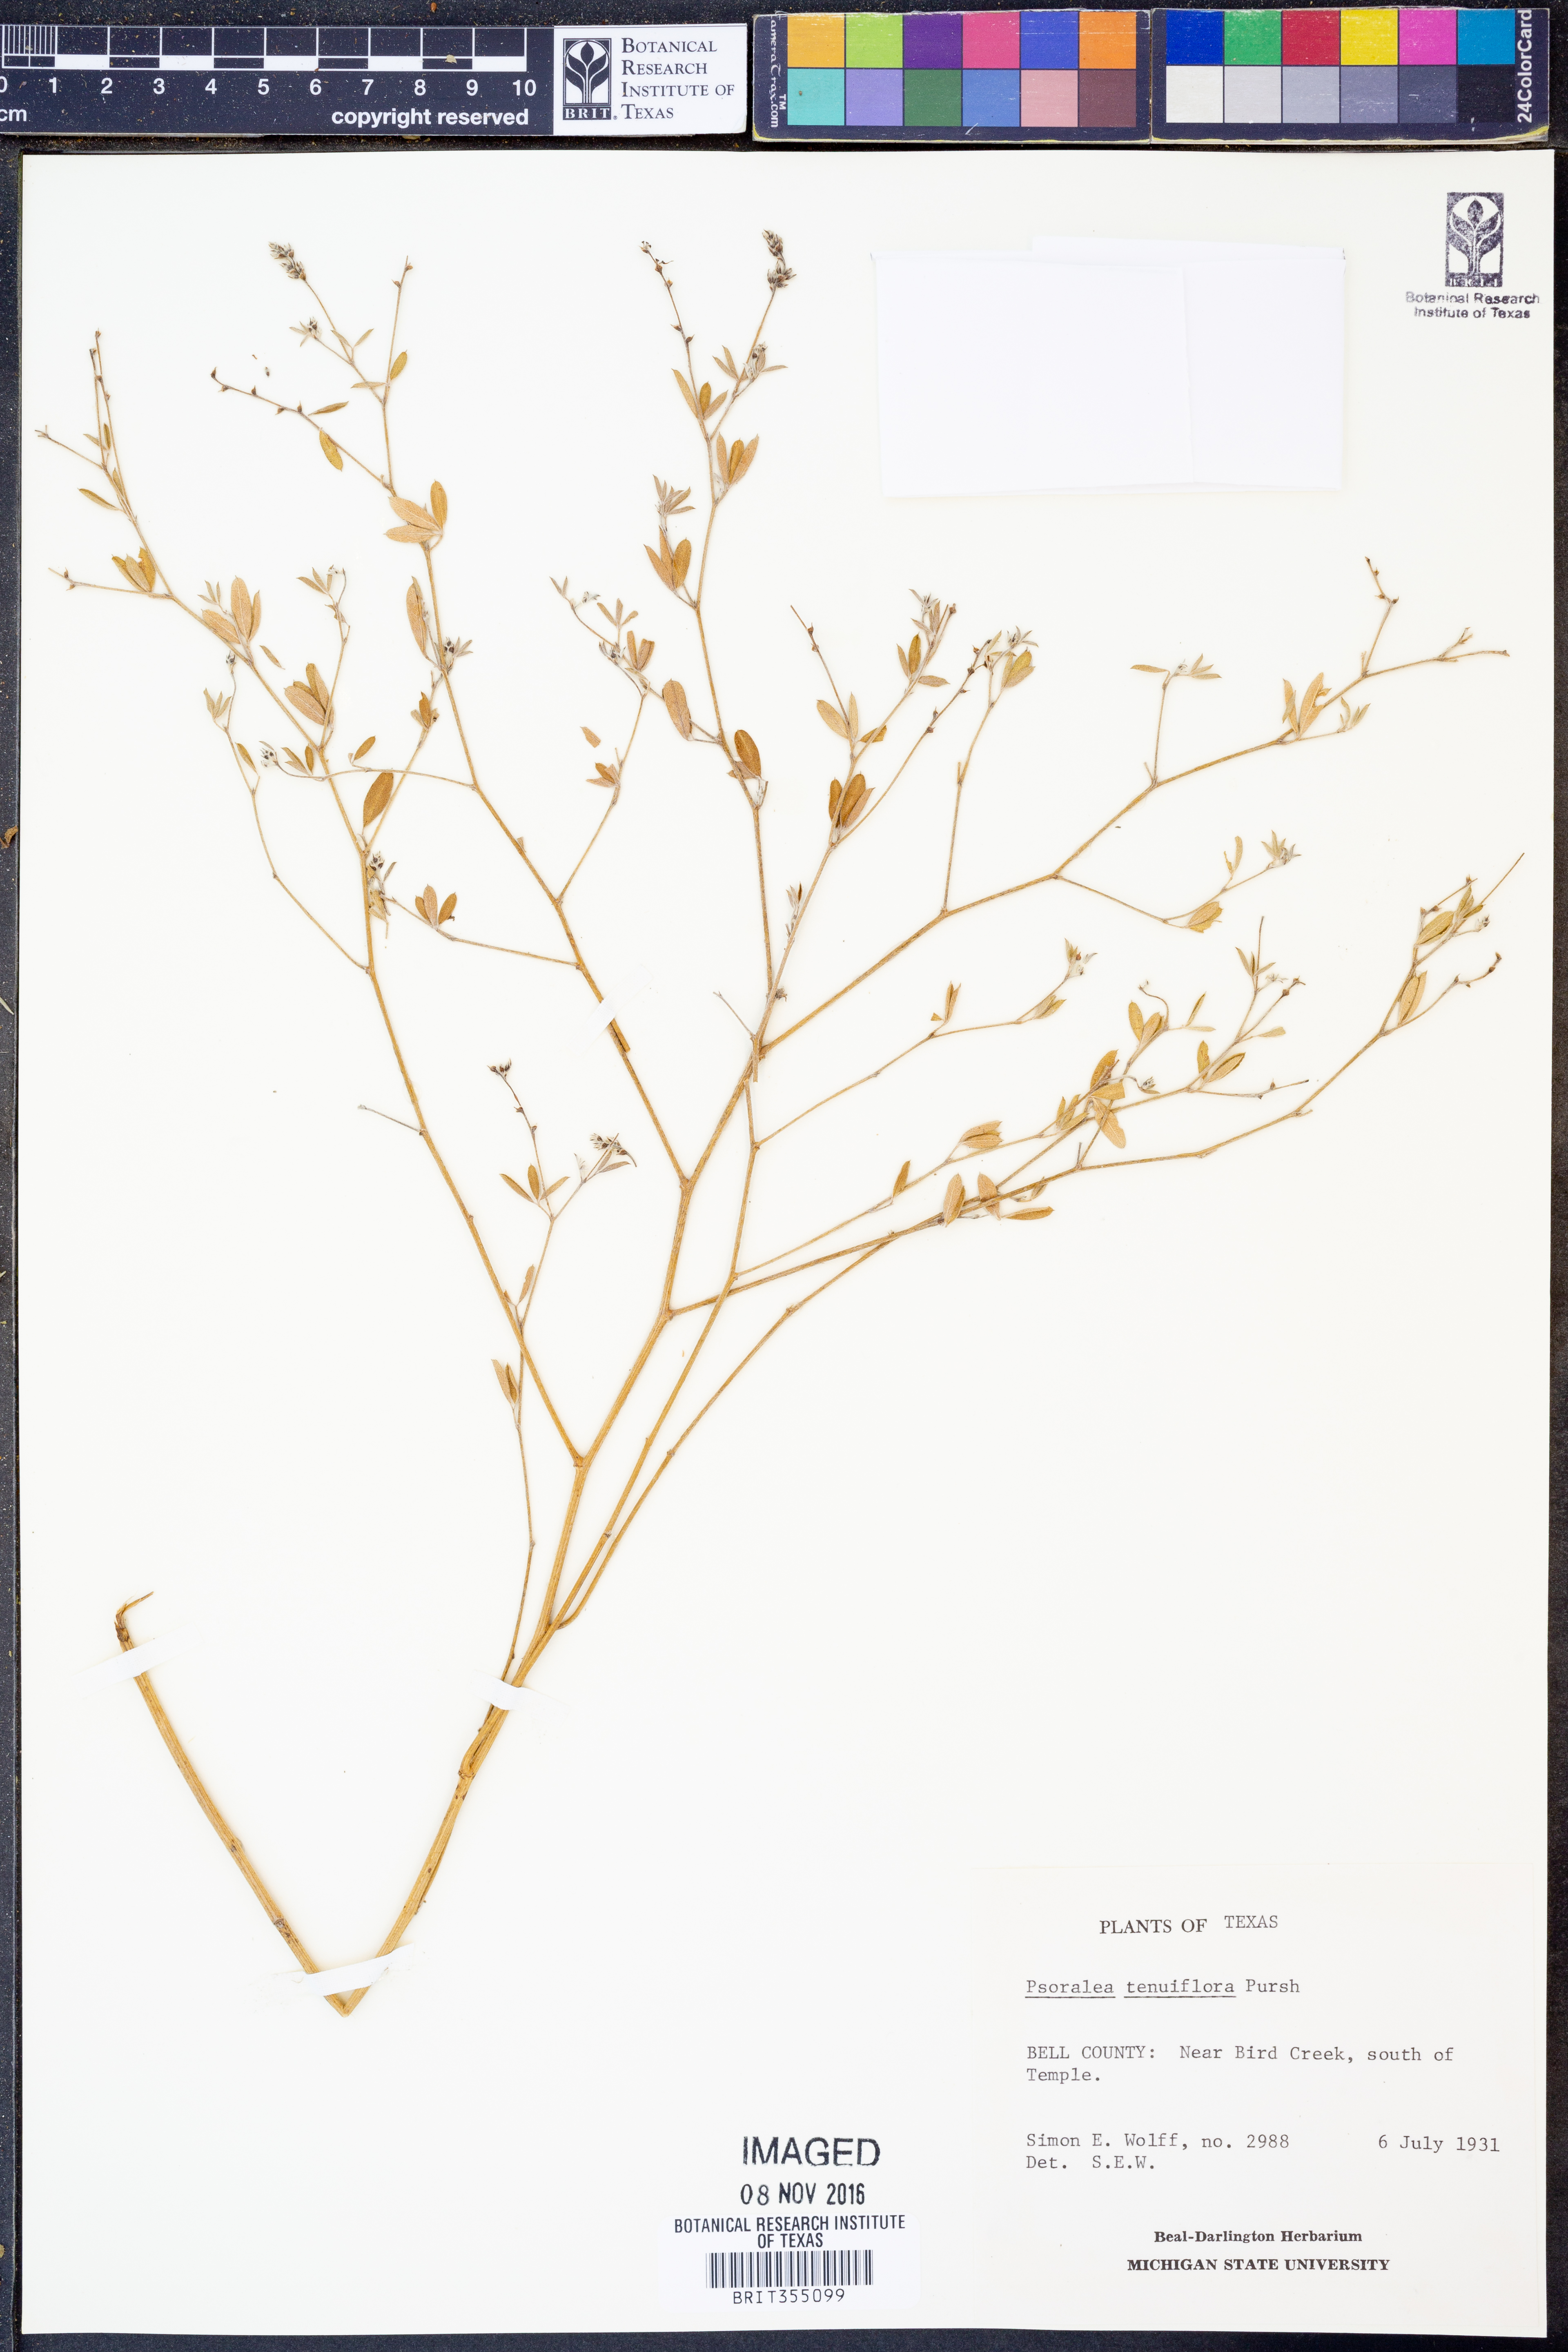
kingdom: Plantae
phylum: Tracheophyta
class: Magnoliopsida
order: Fabales
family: Fabaceae
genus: Pediomelum
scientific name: Pediomelum tenuiflorum
